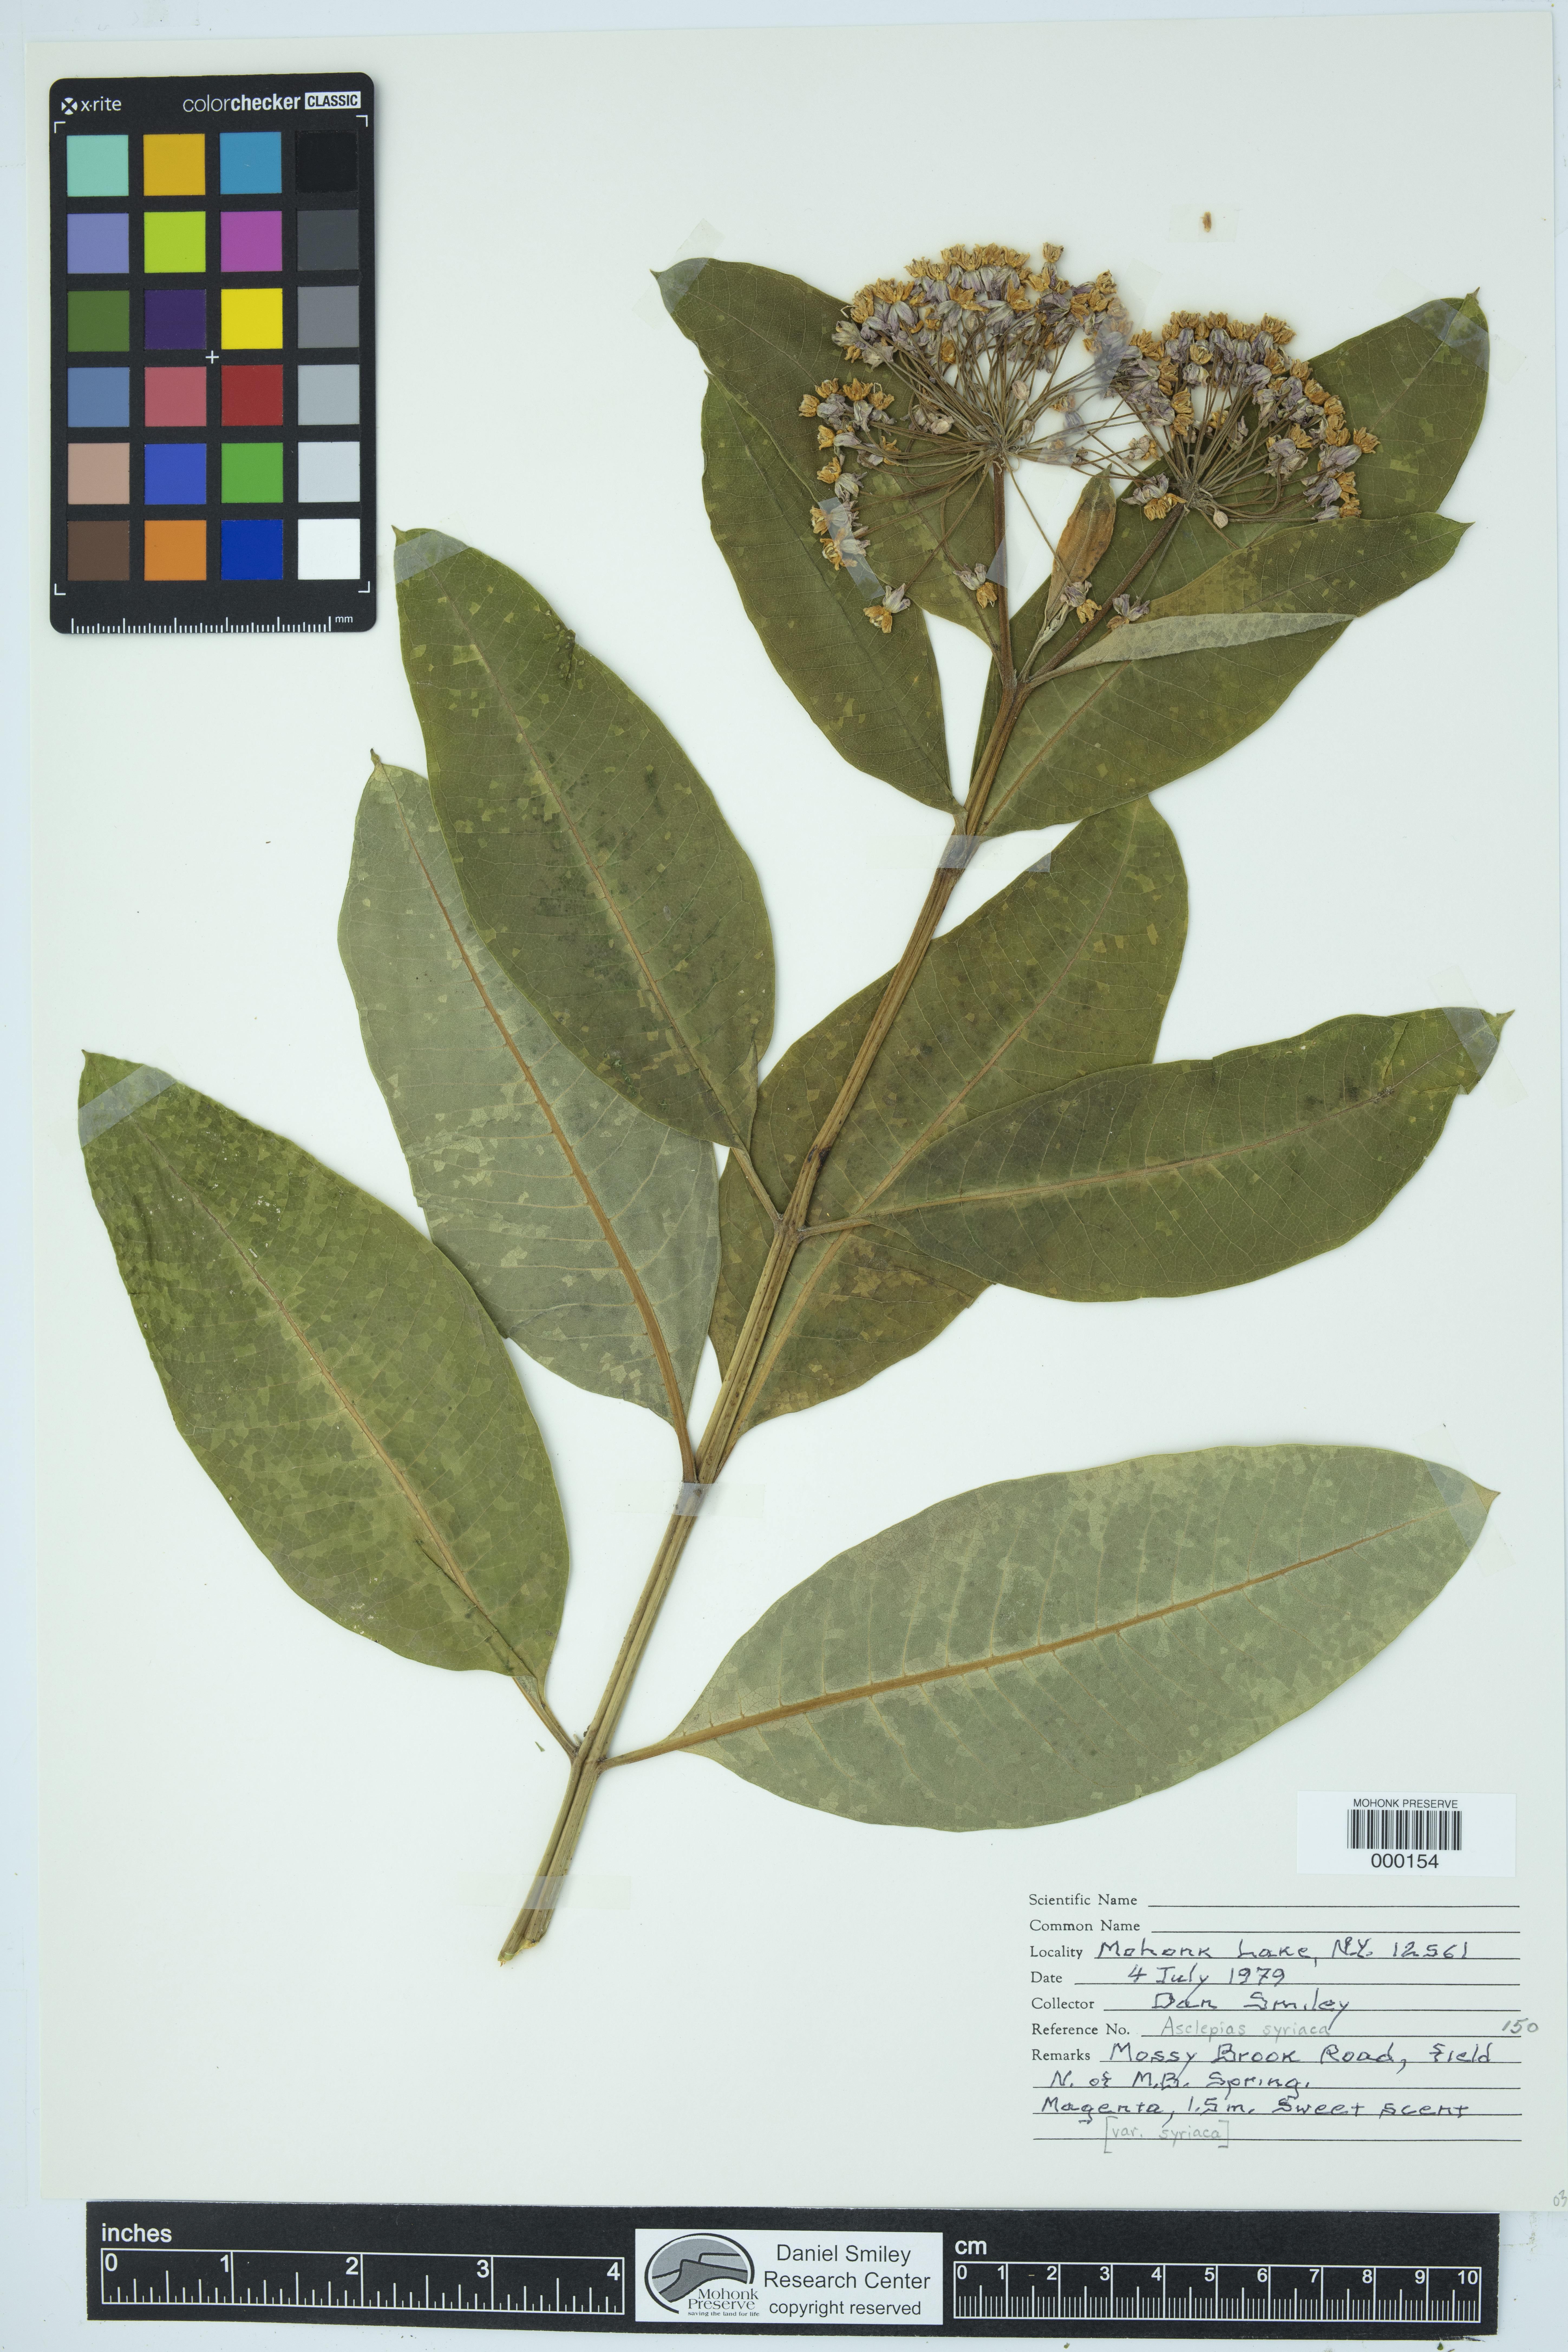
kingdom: Plantae
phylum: Tracheophyta
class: Magnoliopsida
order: Gentianales
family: Apocynaceae
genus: Asclepias
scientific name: Asclepias syriaca
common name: Common milkweed
